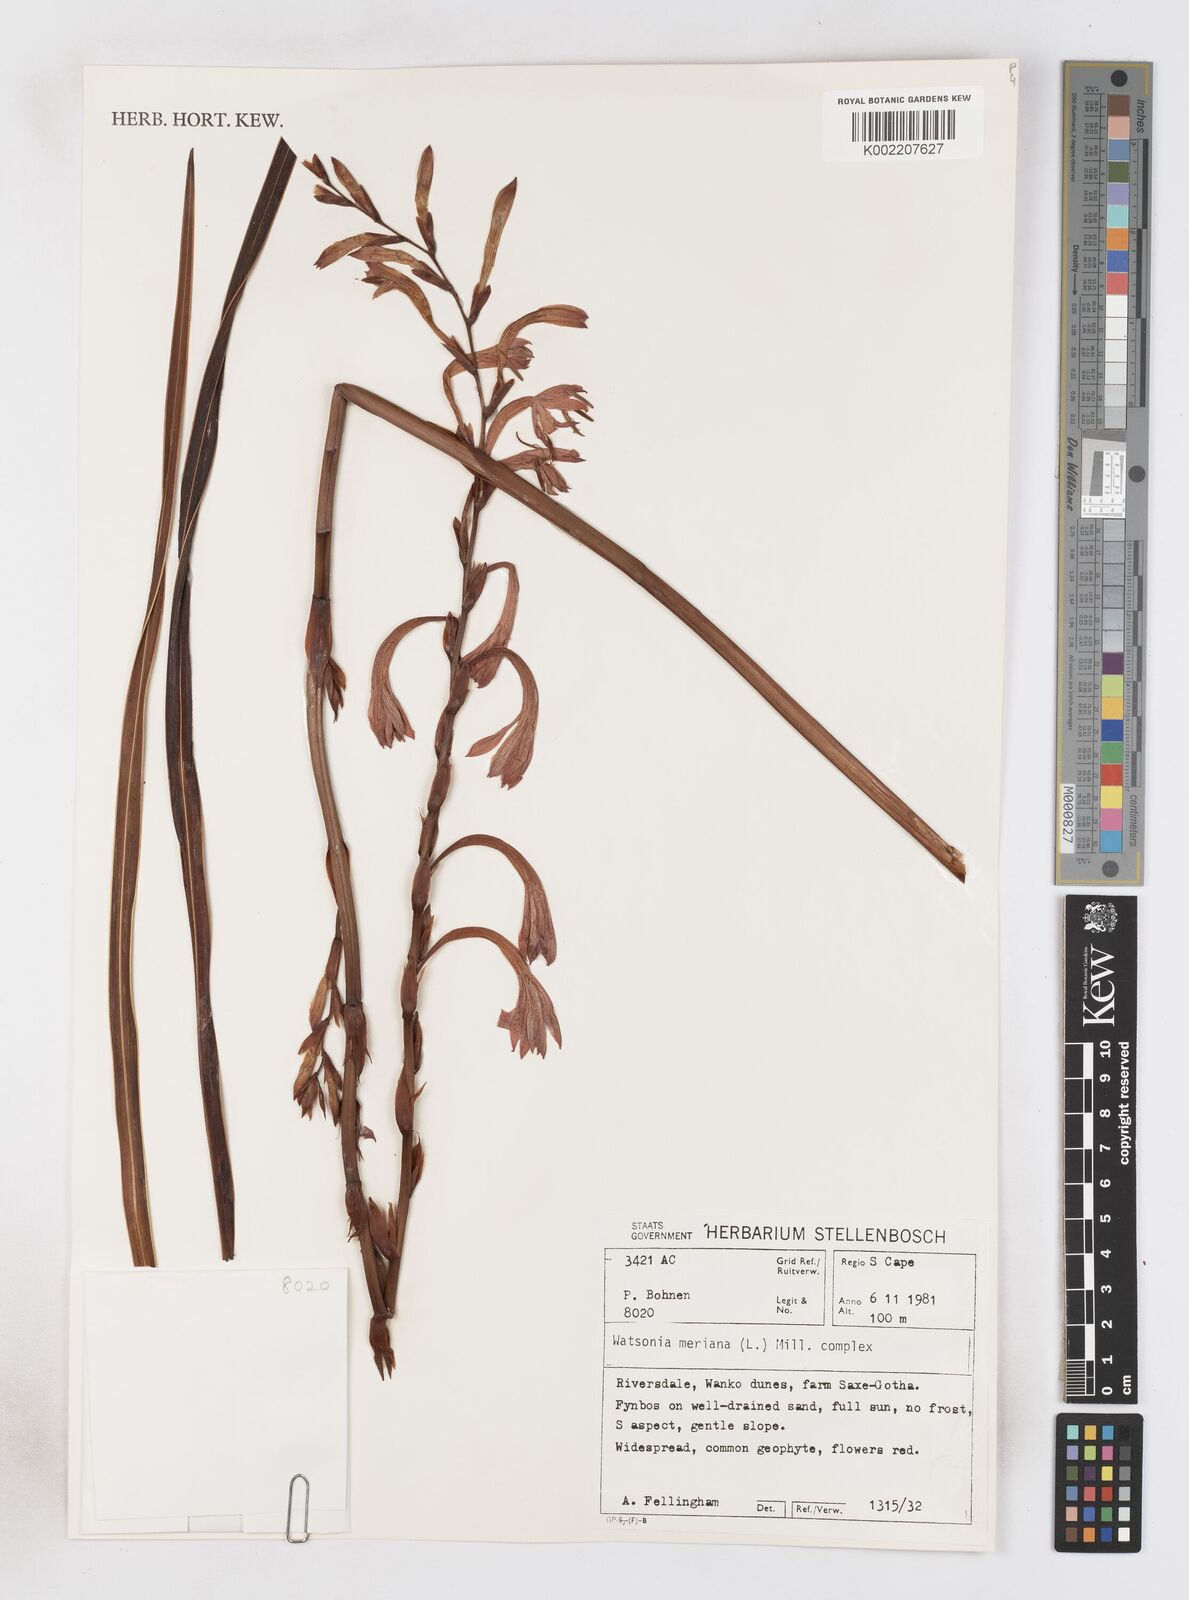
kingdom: Plantae
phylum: Tracheophyta
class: Liliopsida
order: Asparagales
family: Iridaceae
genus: Watsonia
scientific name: Watsonia meriana
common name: Bulbil bugle-lily
